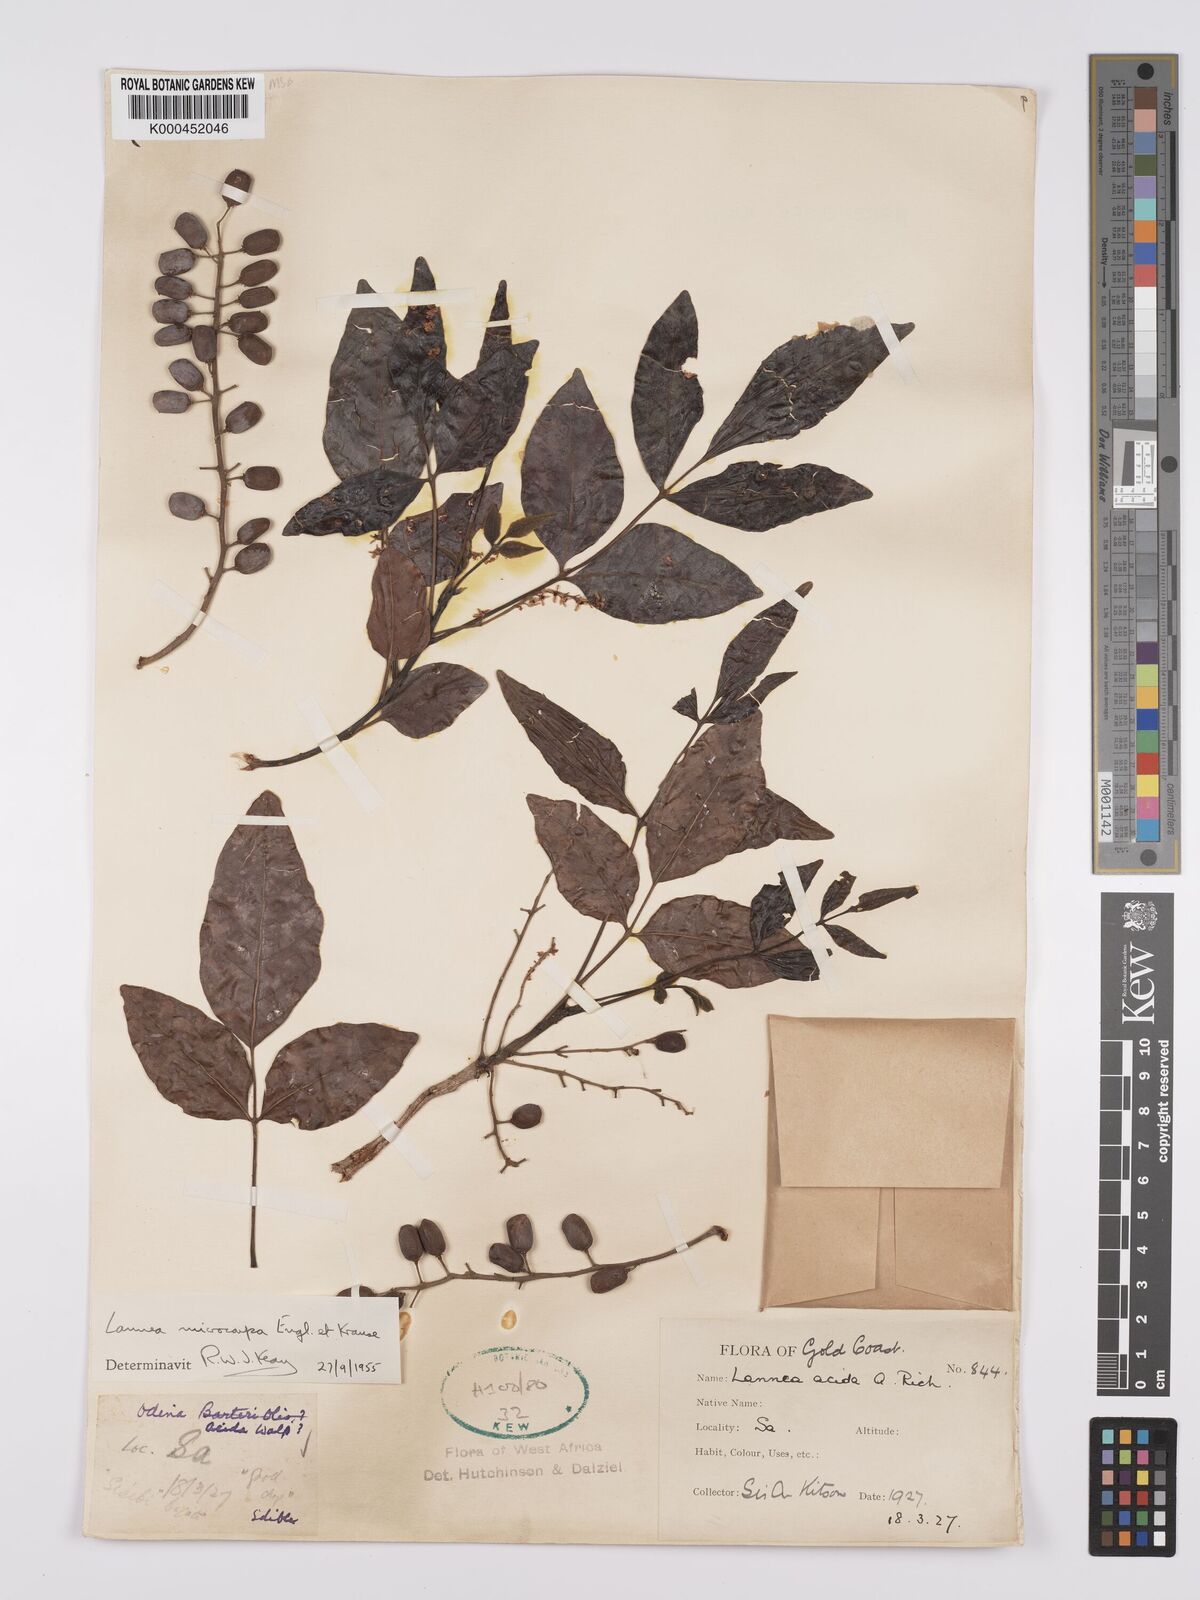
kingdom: Plantae
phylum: Tracheophyta
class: Magnoliopsida
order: Sapindales
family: Anacardiaceae
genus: Lannea
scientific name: Lannea microcarpa
